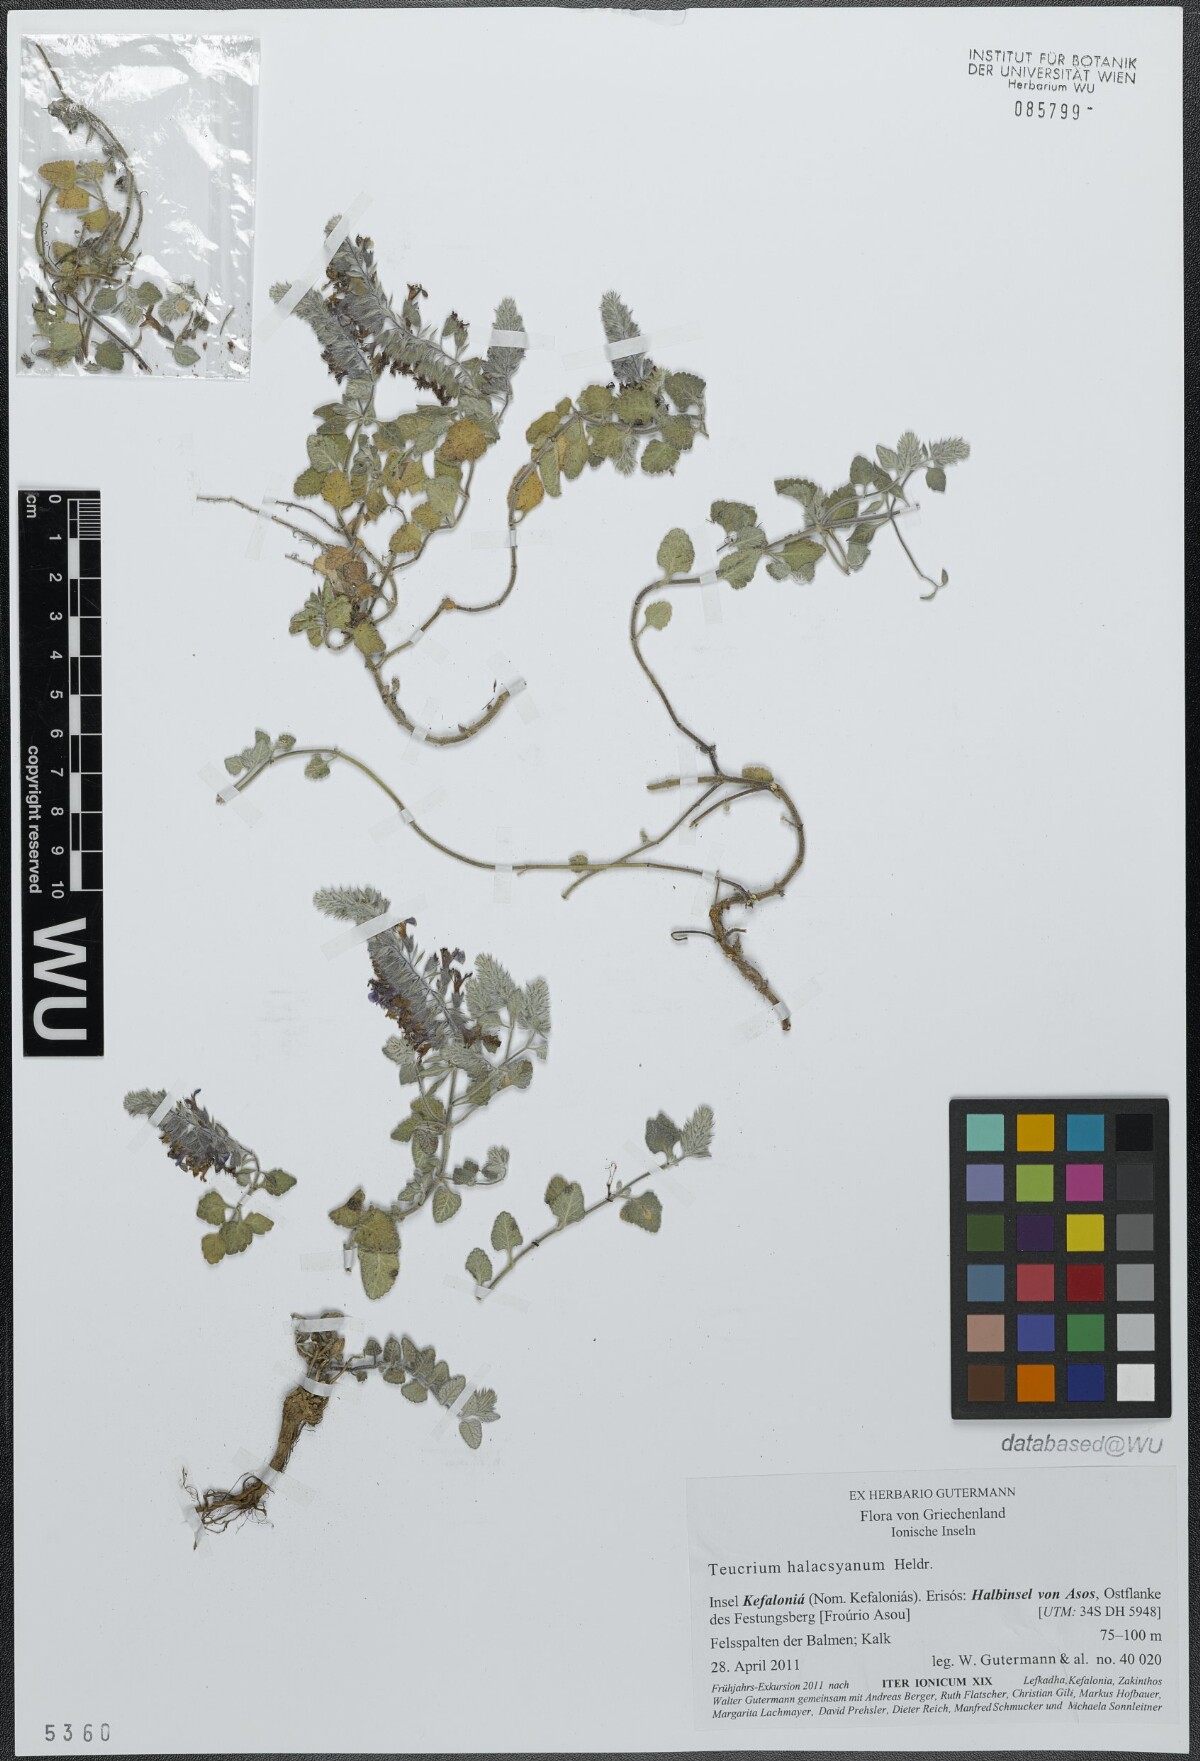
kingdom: Plantae
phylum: Tracheophyta
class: Magnoliopsida
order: Lamiales
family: Lamiaceae
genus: Teucrium
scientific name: Teucrium halacsyanum
